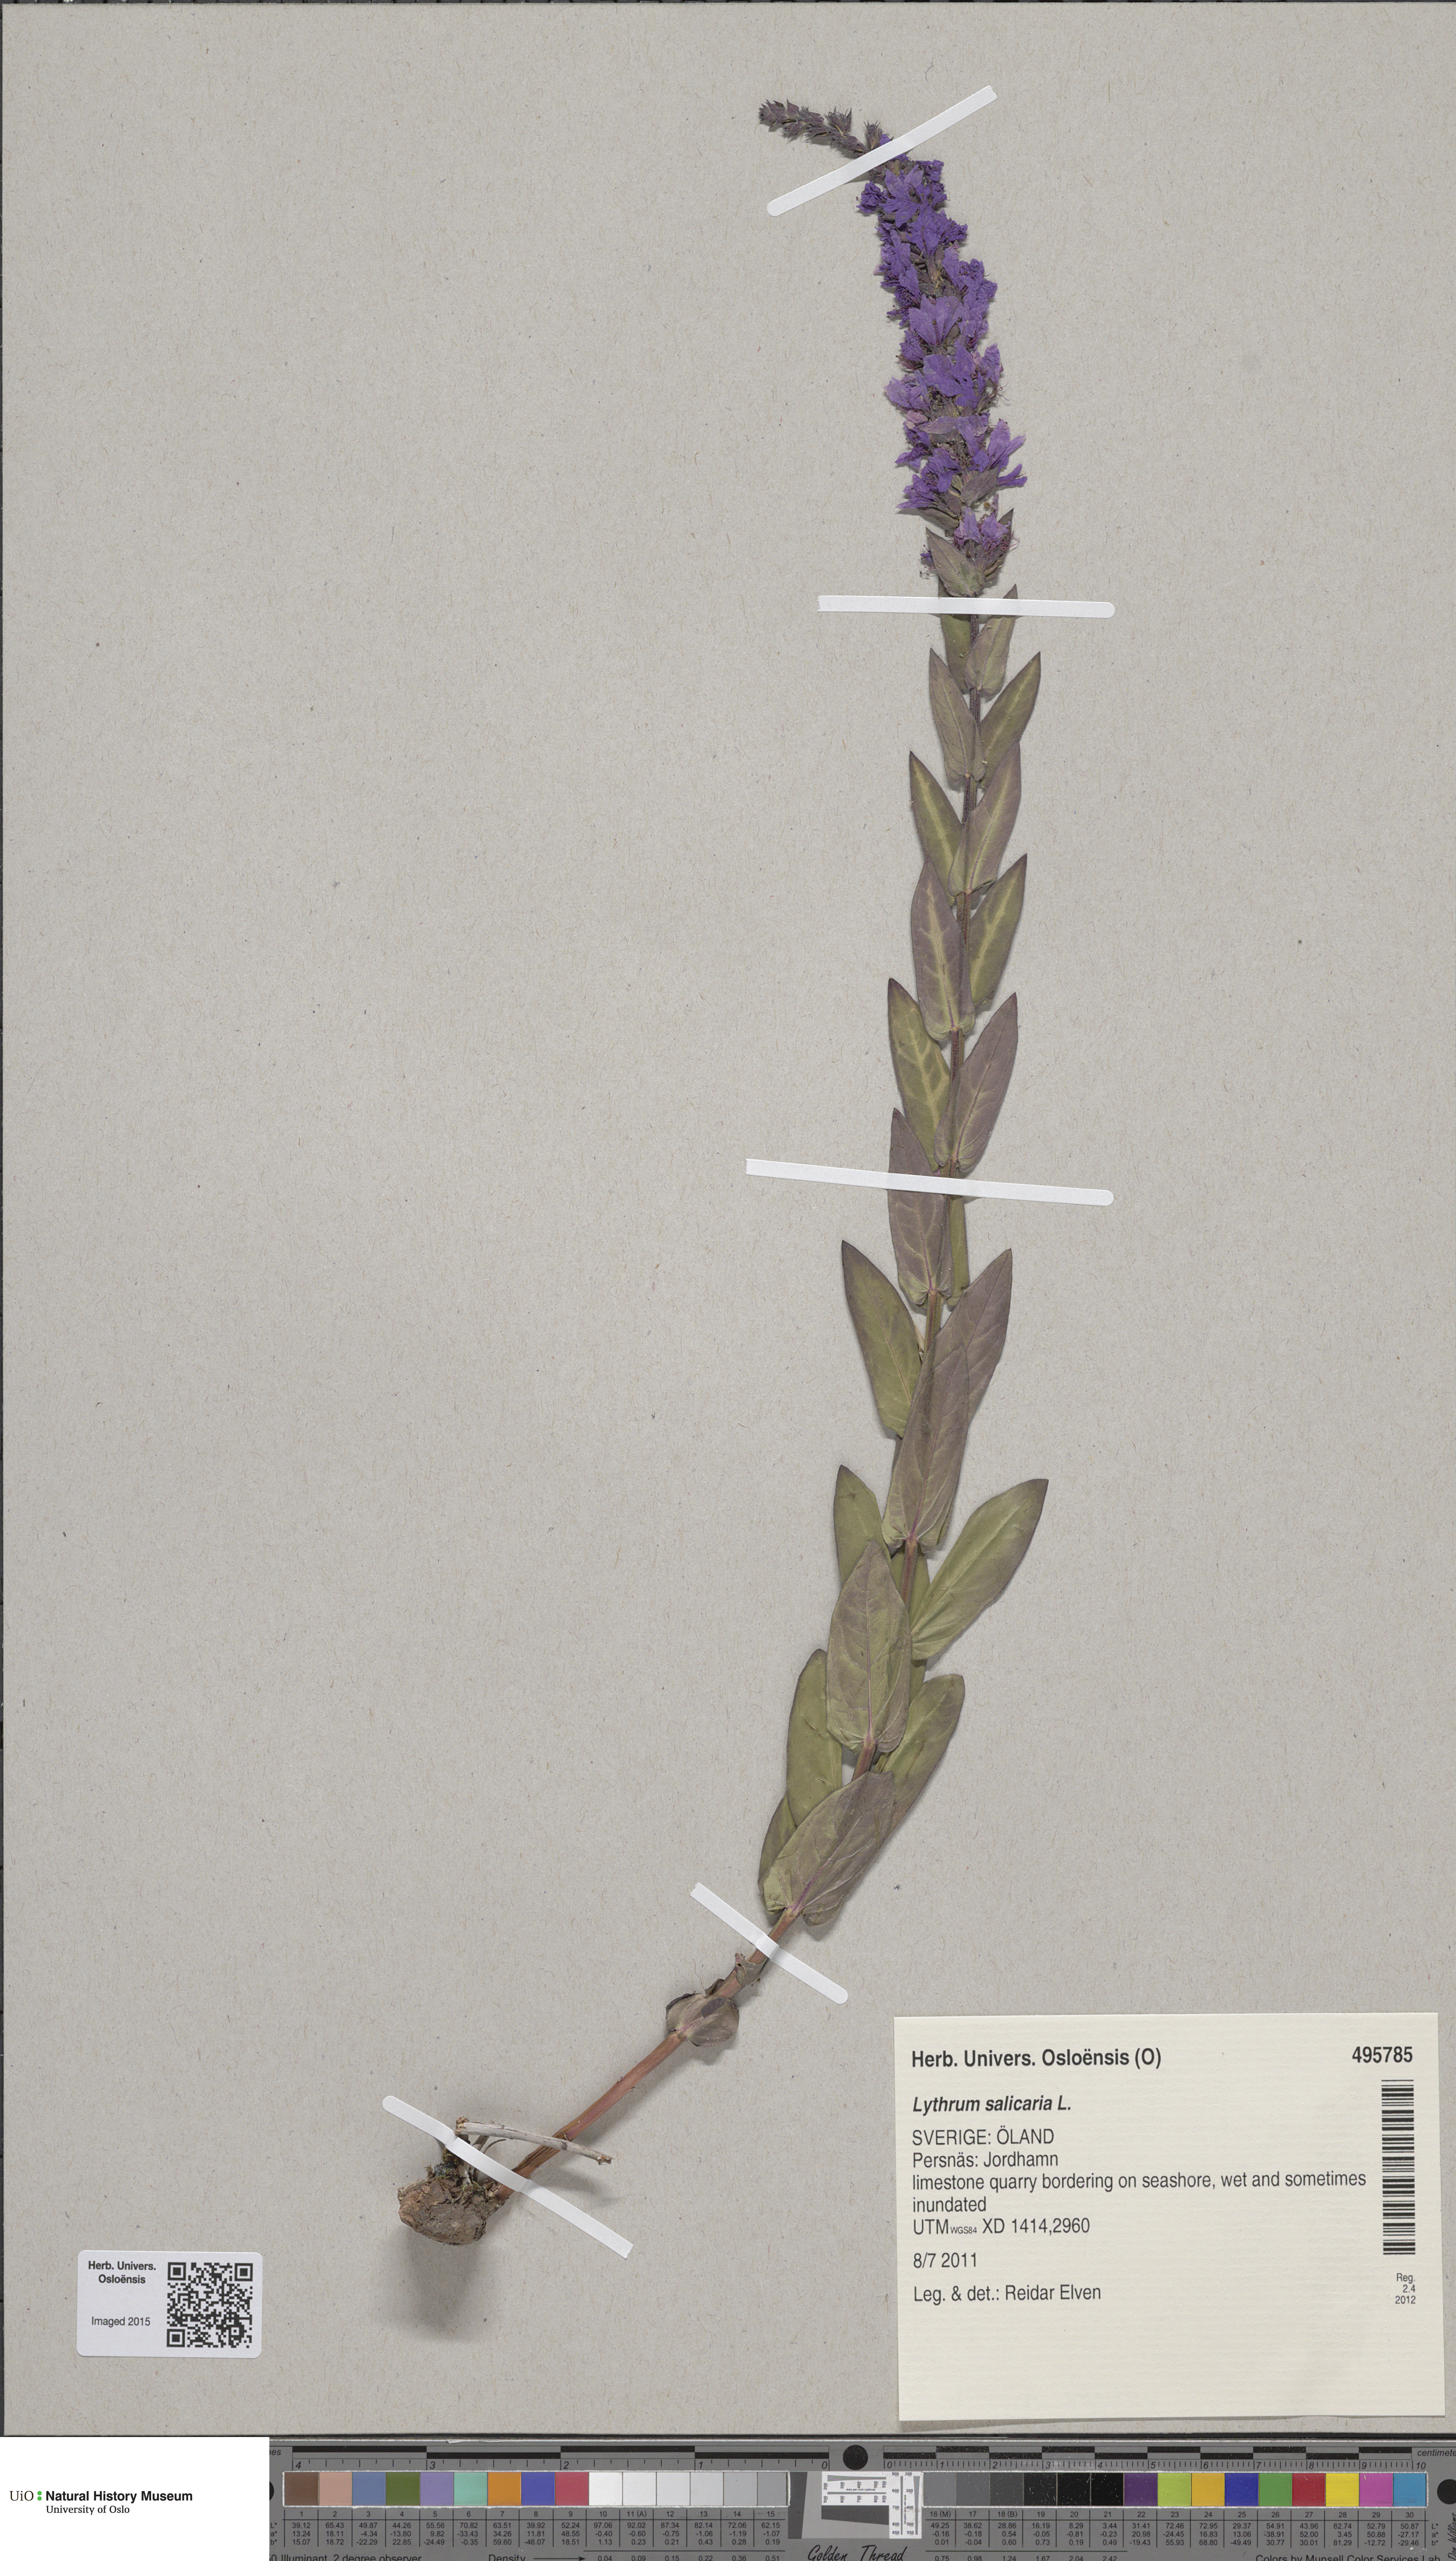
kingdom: Plantae
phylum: Tracheophyta
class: Magnoliopsida
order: Myrtales
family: Lythraceae
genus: Lythrum
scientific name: Lythrum salicaria
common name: Purple loosestrife
